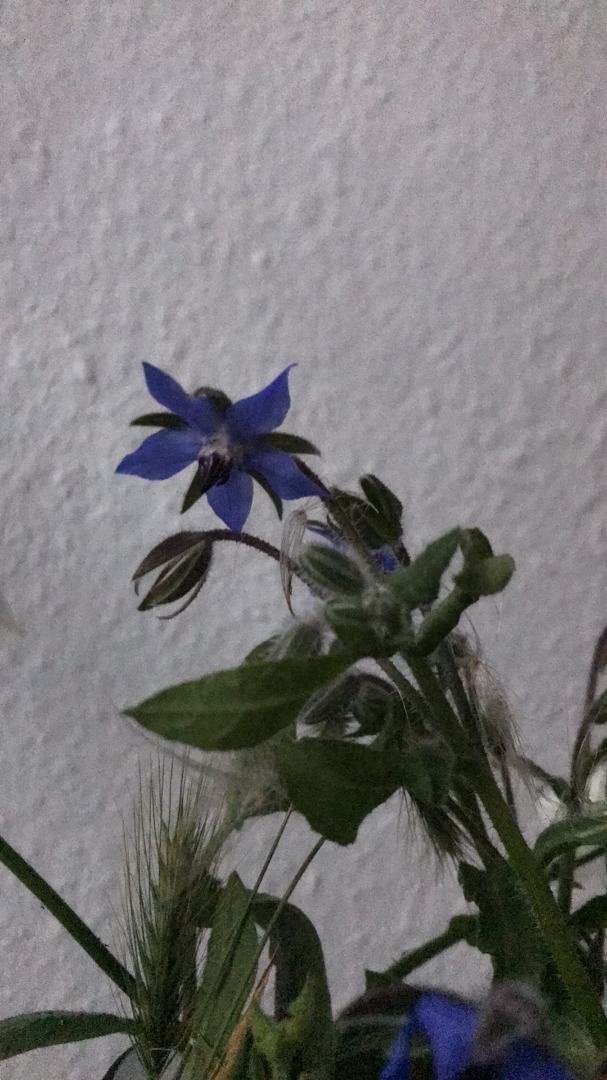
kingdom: Plantae
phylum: Tracheophyta
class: Magnoliopsida
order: Boraginales
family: Boraginaceae
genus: Borago
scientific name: Borago officinalis
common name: Hjulkrone
